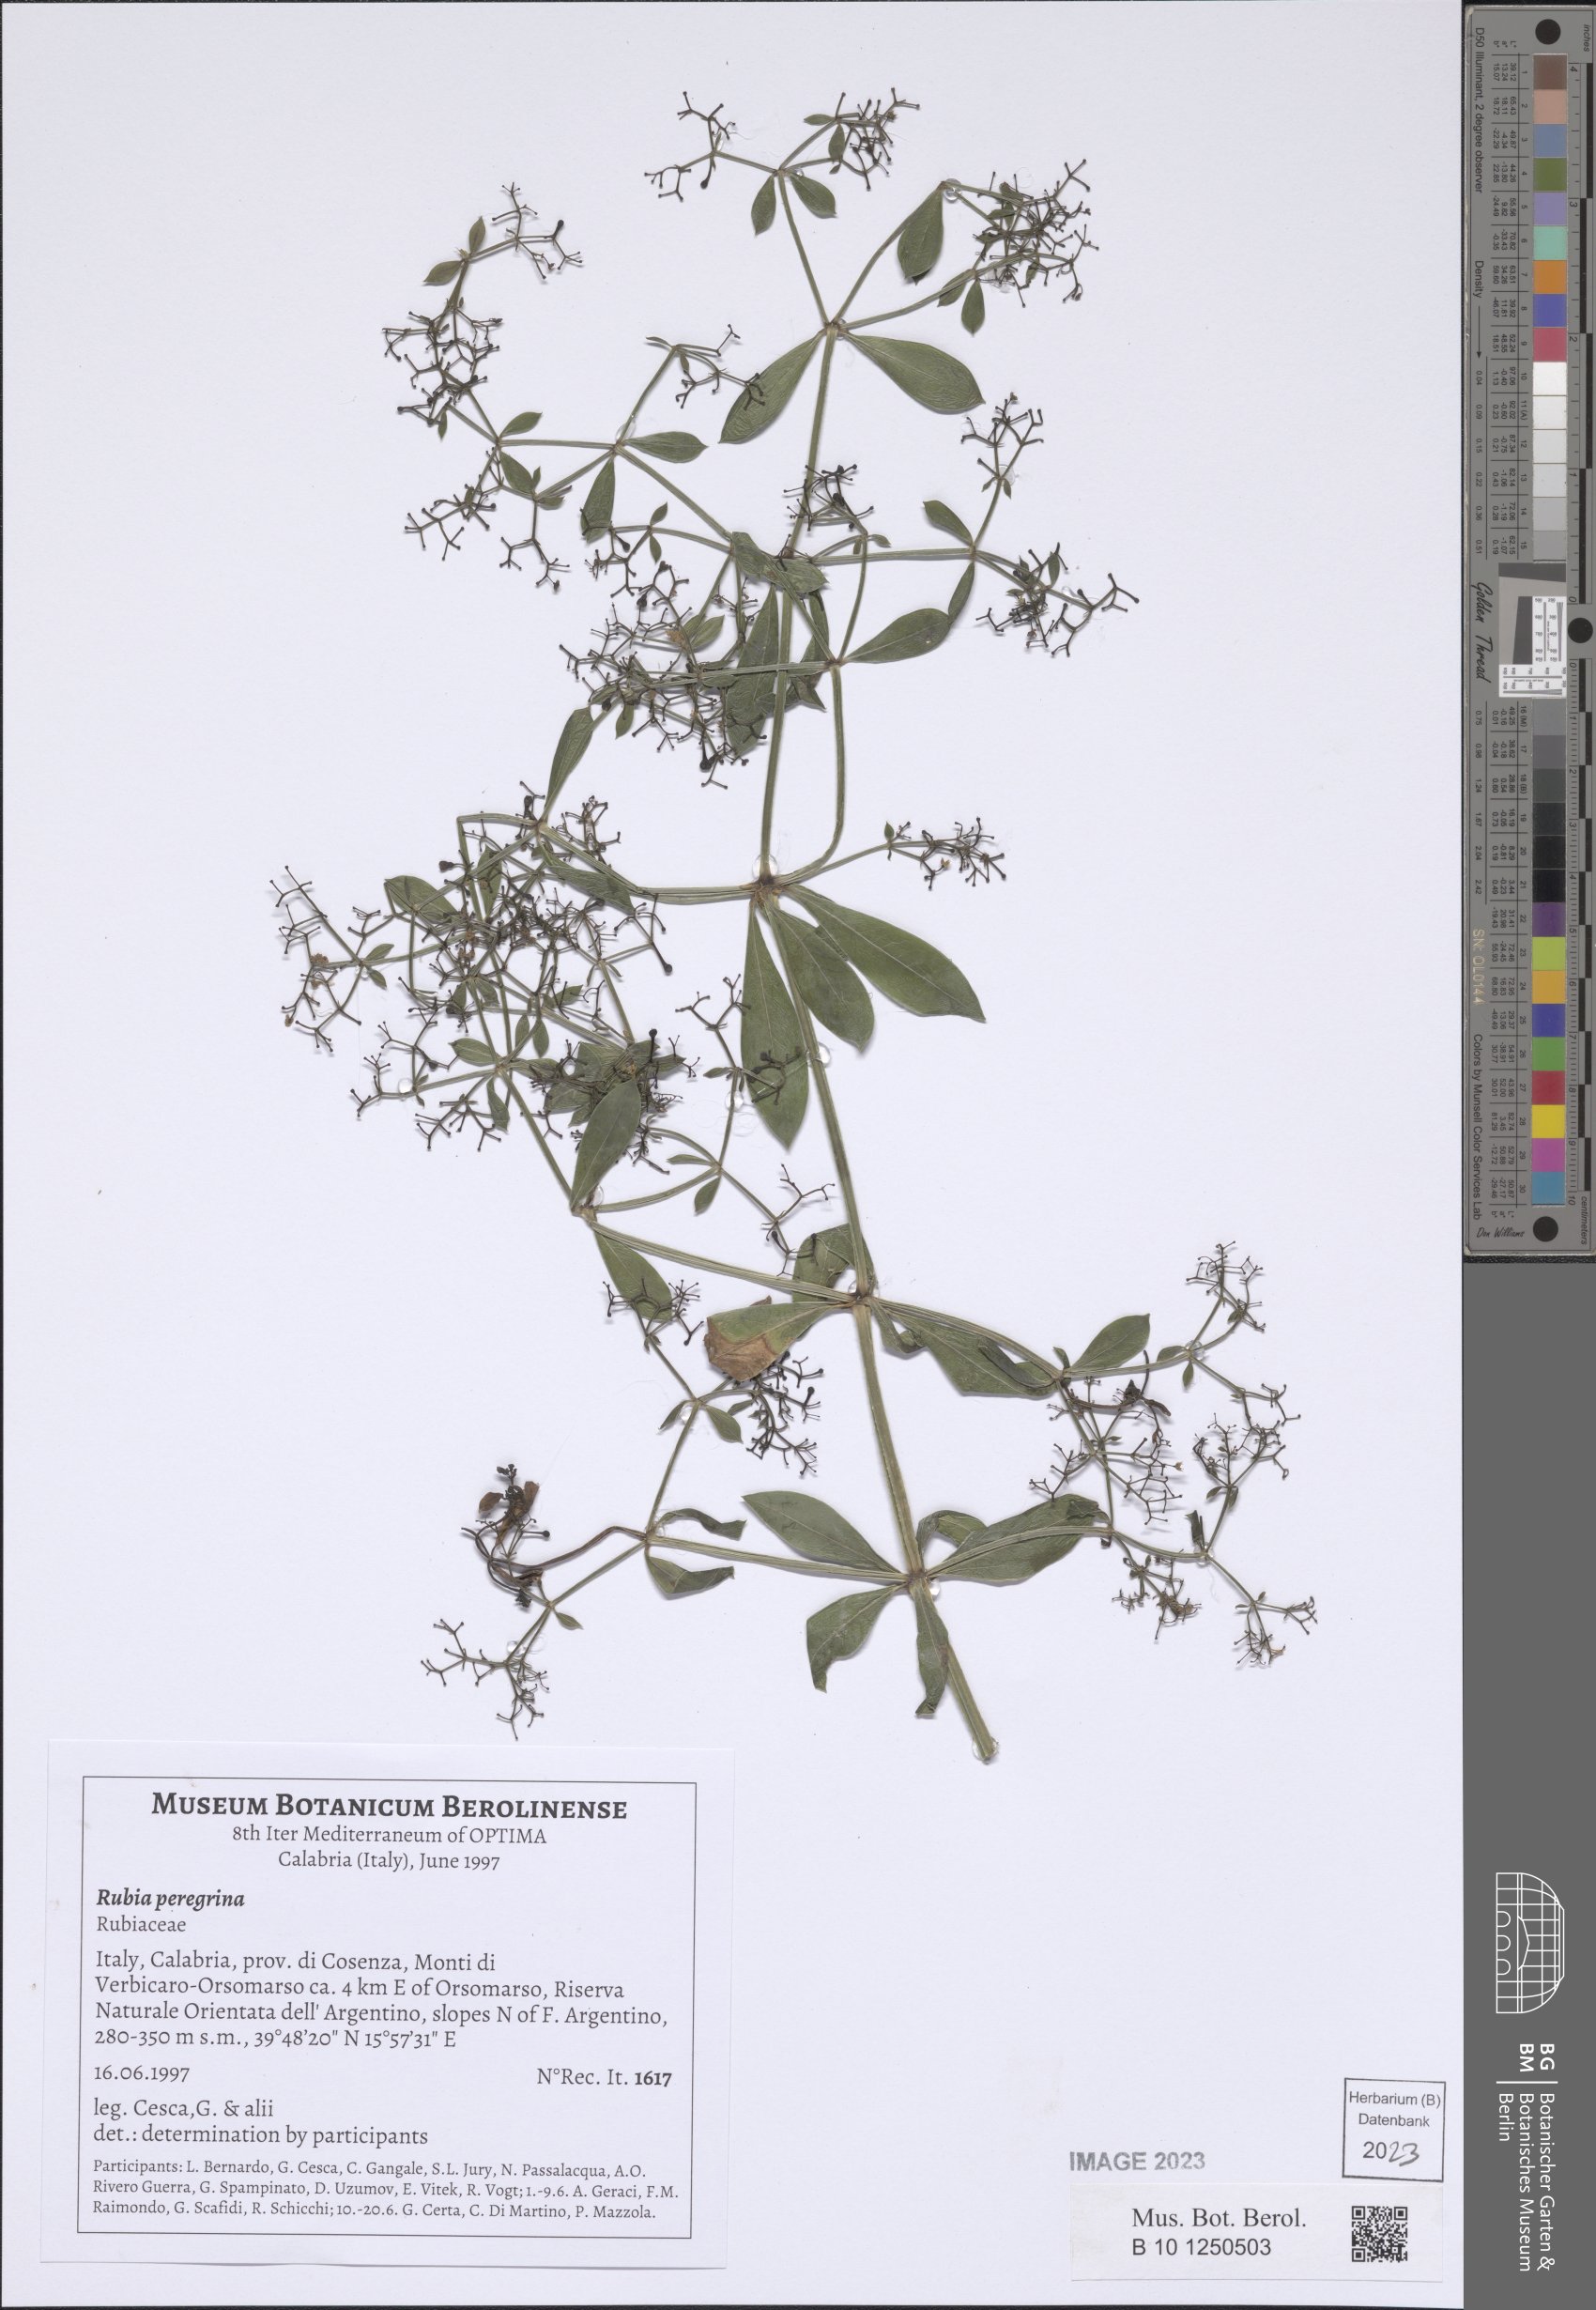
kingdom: Plantae
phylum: Tracheophyta
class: Magnoliopsida
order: Gentianales
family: Rubiaceae
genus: Rubia
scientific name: Rubia peregrina
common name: Wild madder
